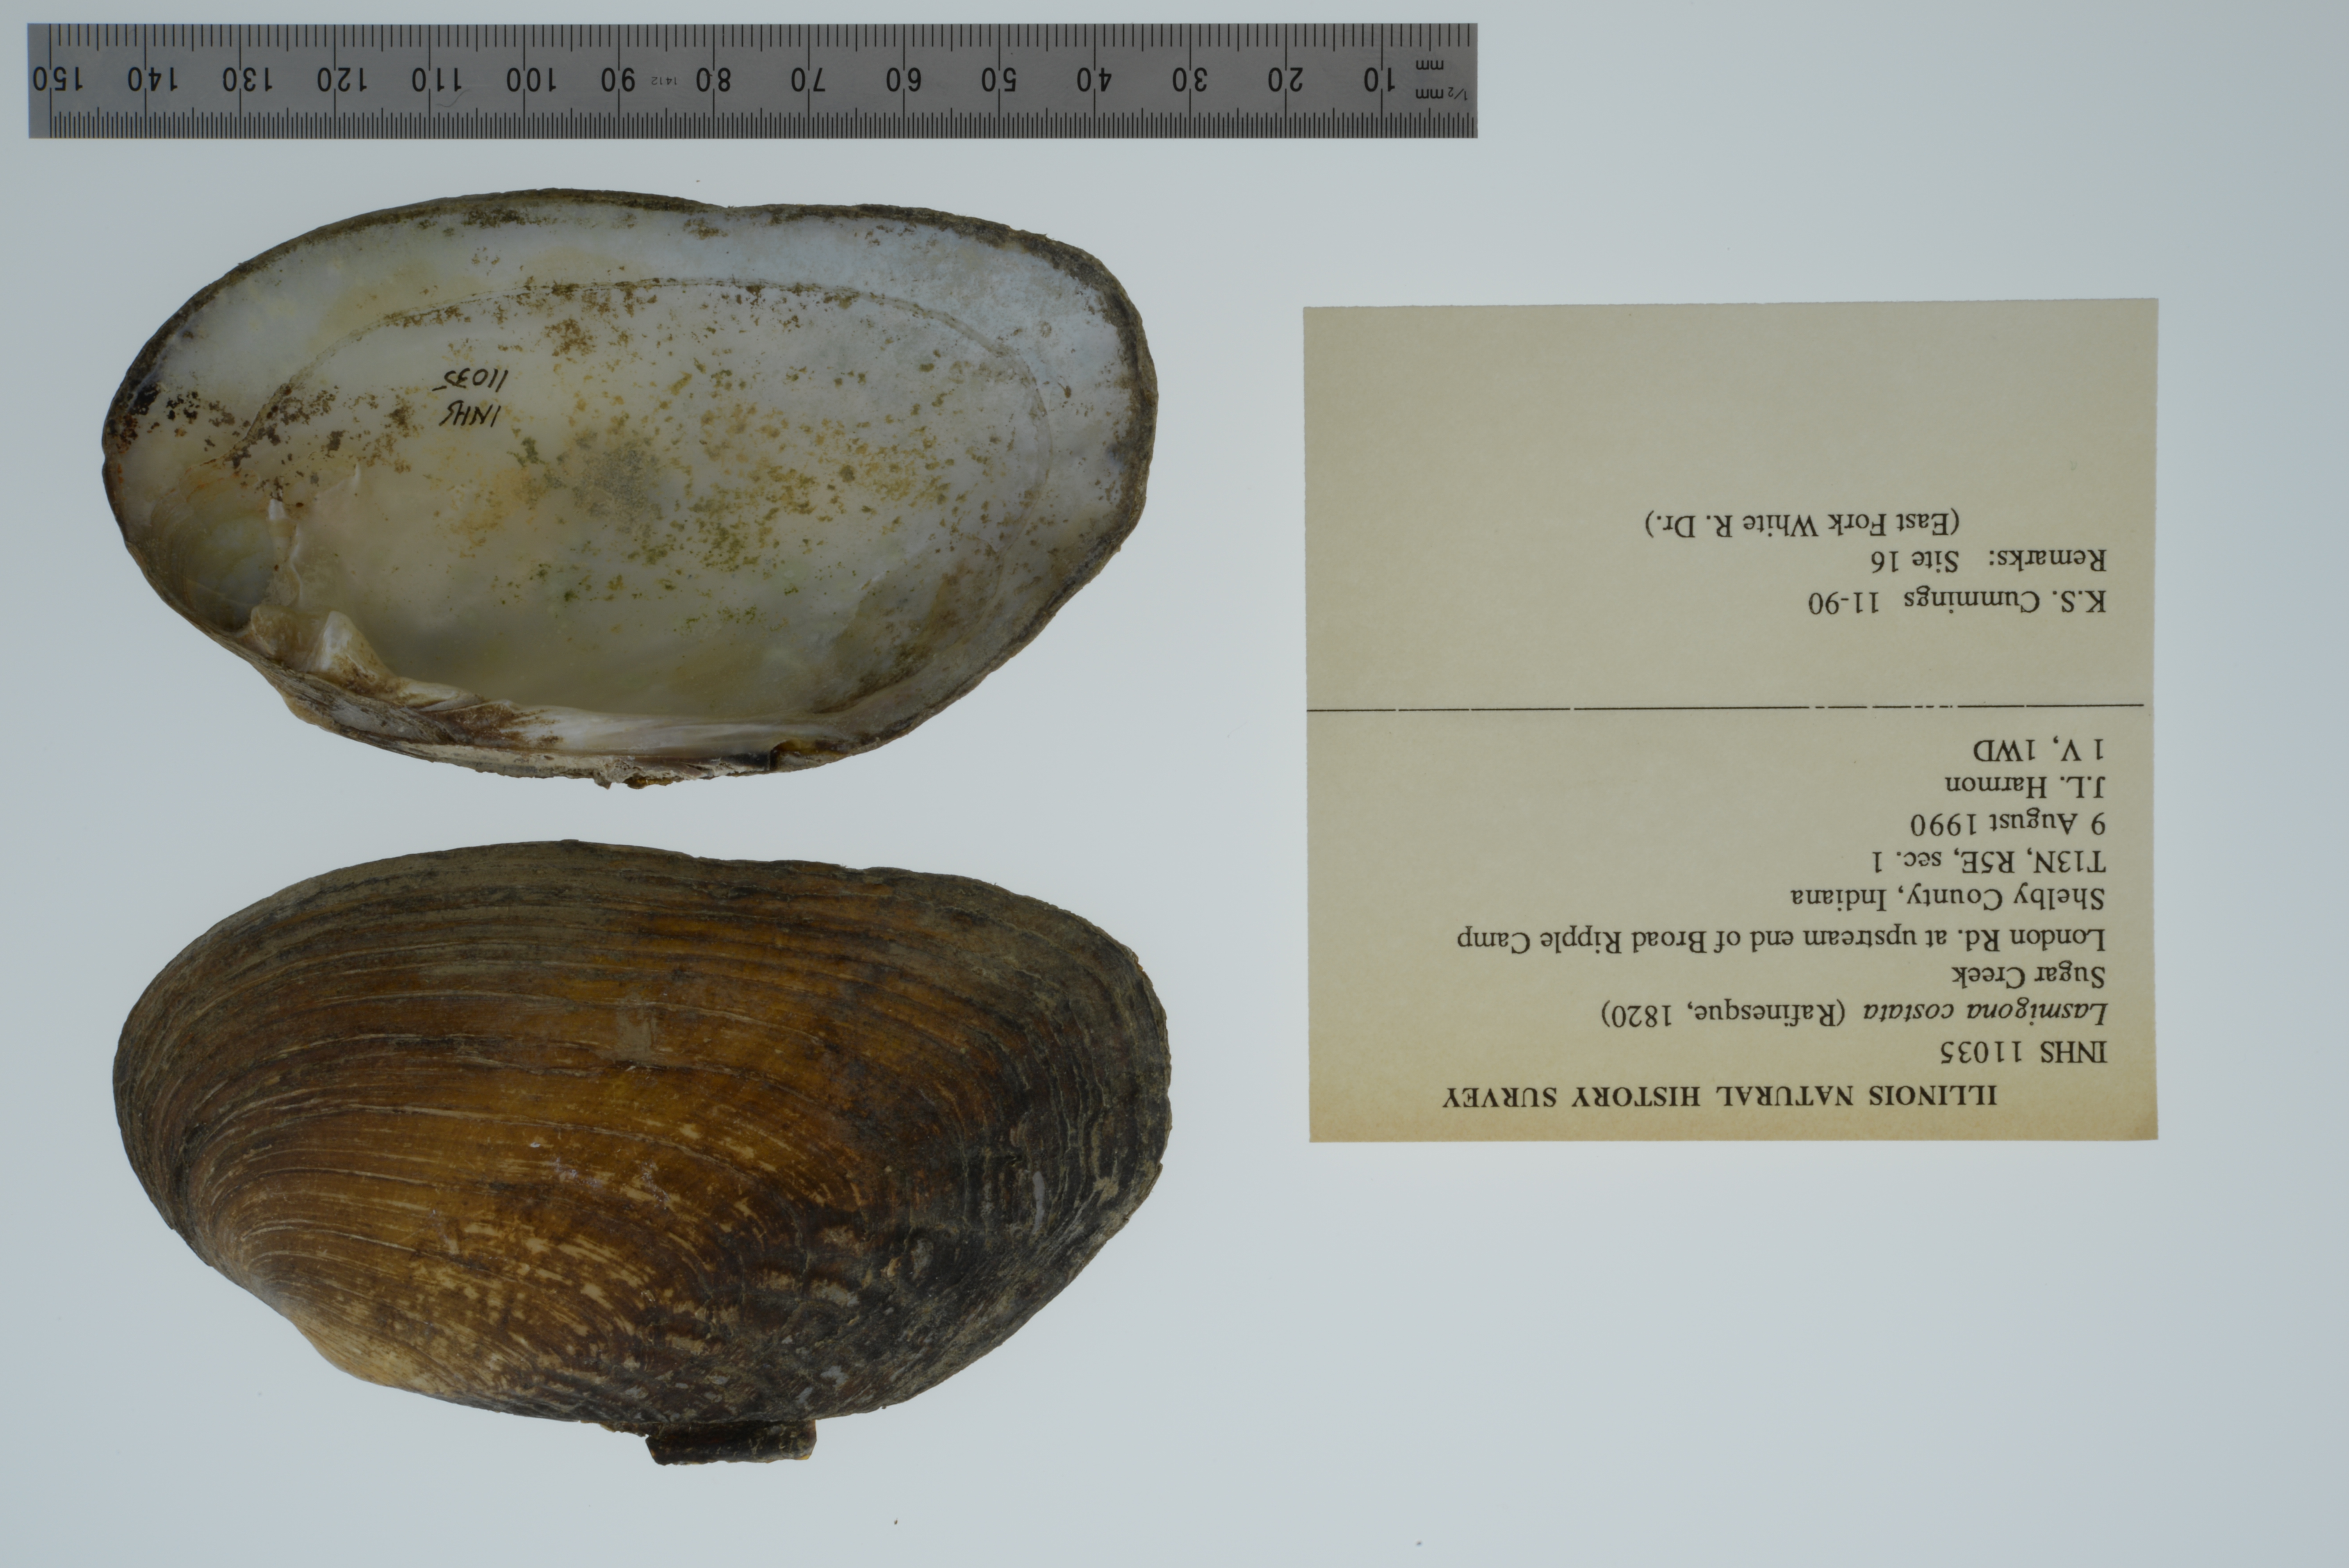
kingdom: Animalia
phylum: Mollusca
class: Bivalvia
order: Unionida
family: Unionidae
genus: Lasmigona
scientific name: Lasmigona costata
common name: Flutedshell
